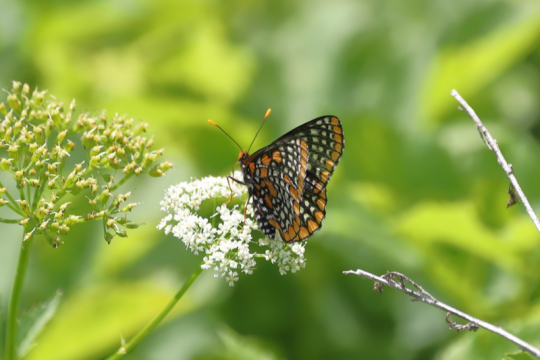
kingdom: Animalia
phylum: Arthropoda
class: Insecta
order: Lepidoptera
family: Nymphalidae
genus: Euphydryas
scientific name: Euphydryas phaeton
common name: Baltimore Checkerspot
